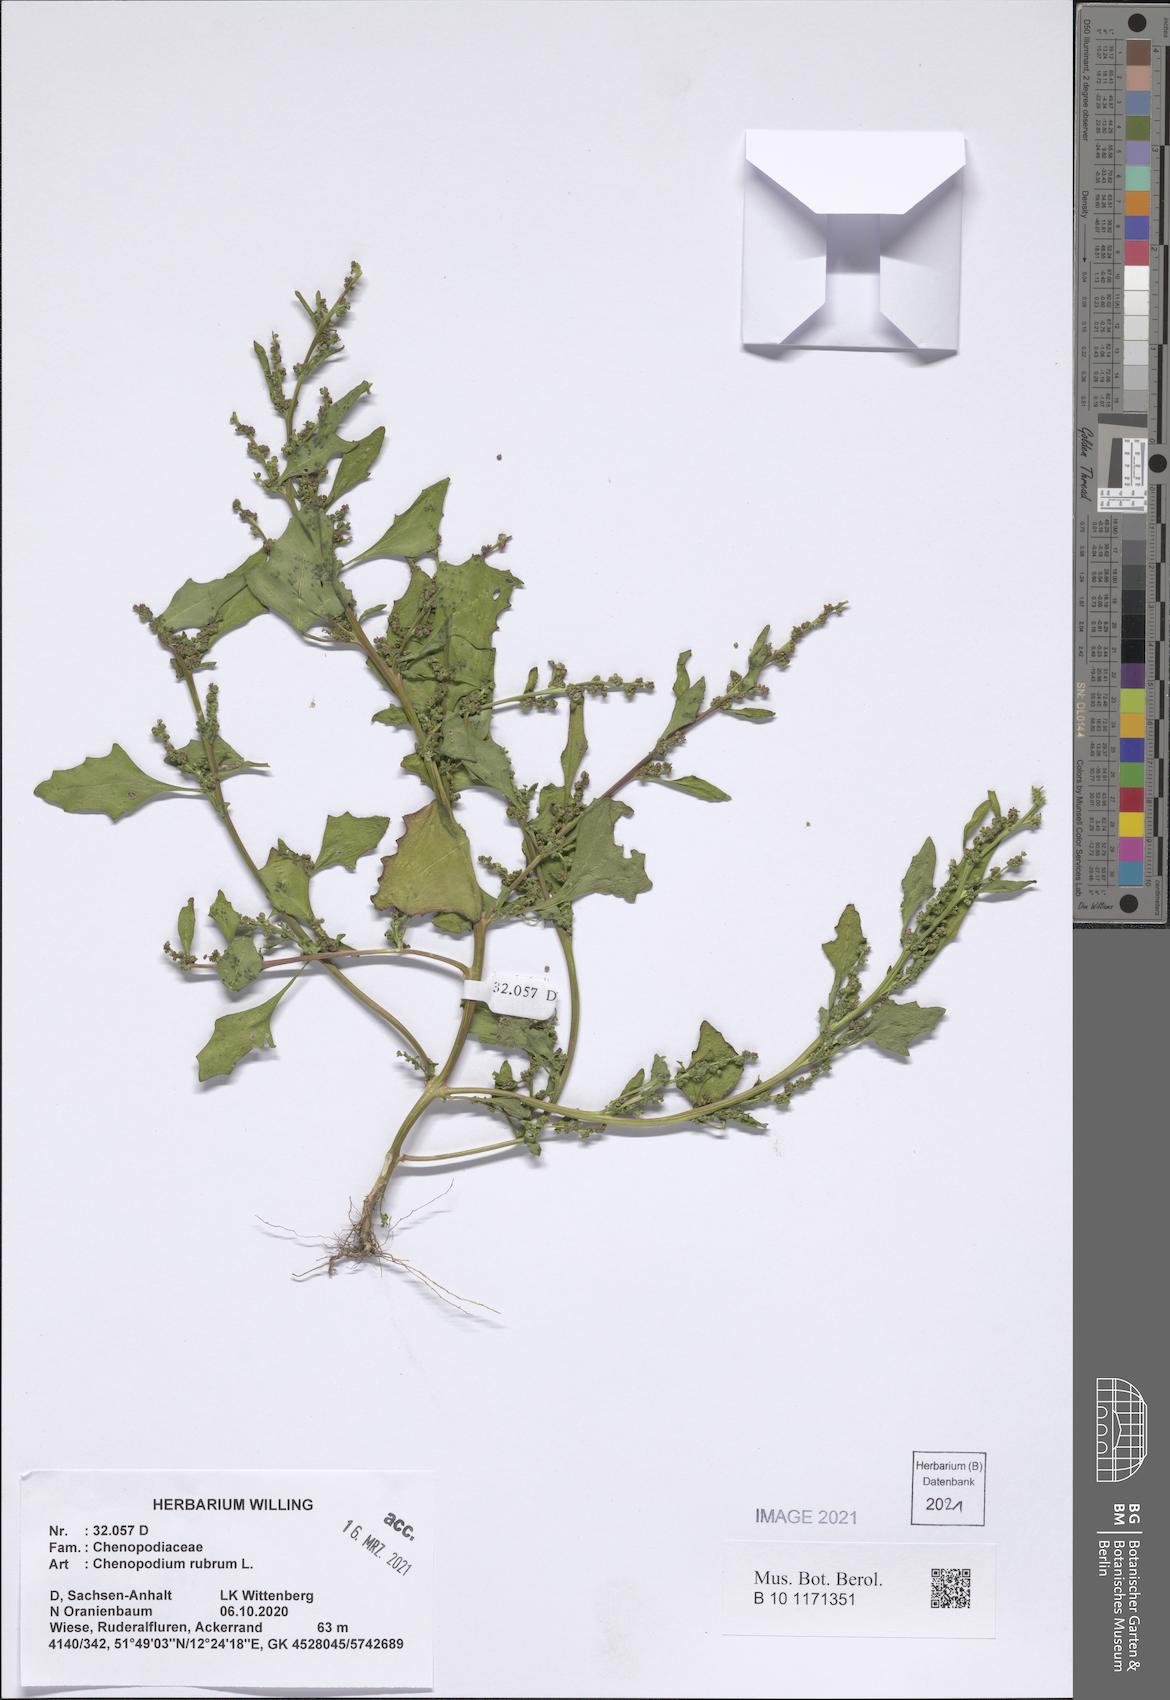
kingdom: Plantae
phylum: Tracheophyta
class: Magnoliopsida
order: Caryophyllales
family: Amaranthaceae
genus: Oxybasis
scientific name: Oxybasis rubra
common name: Red goosefoot
